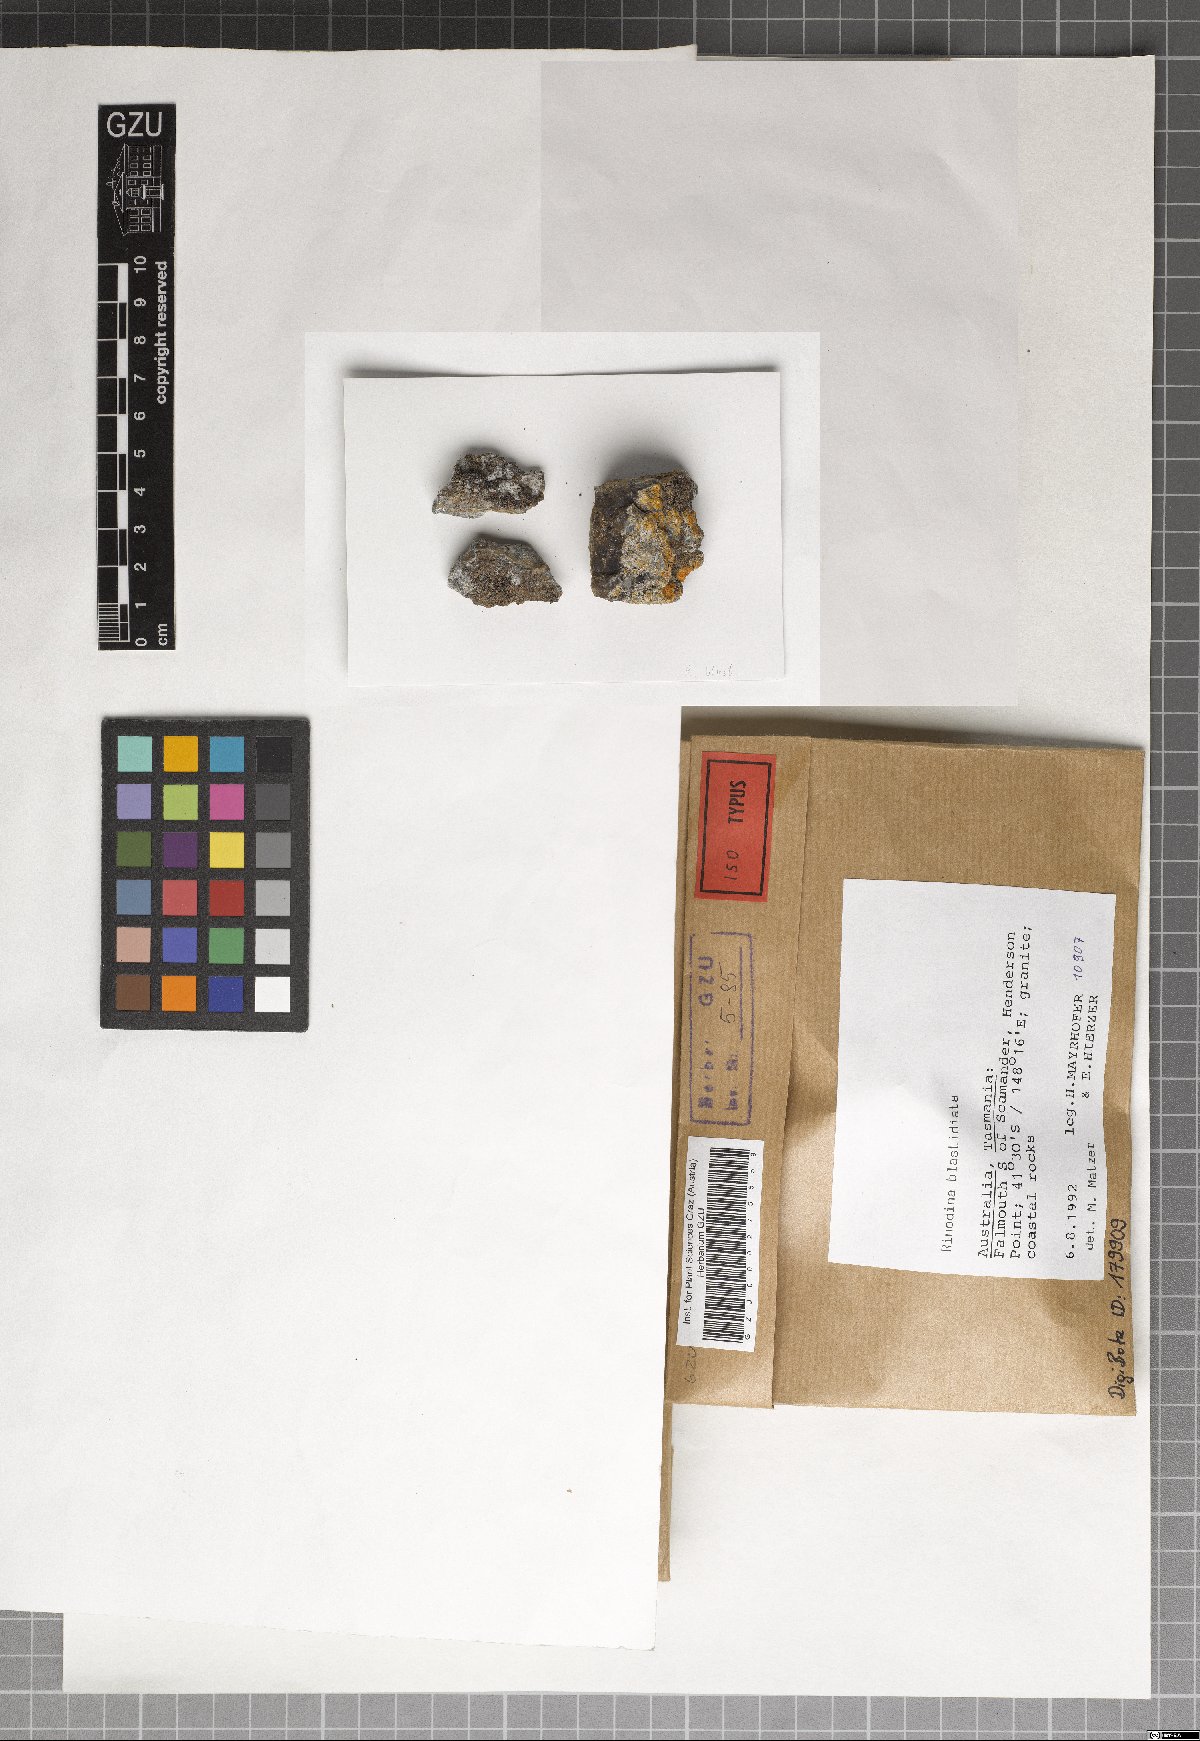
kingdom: Fungi
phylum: Ascomycota
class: Lecanoromycetes
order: Caliciales
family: Physciaceae
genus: Rinodina
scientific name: Rinodina blastidiata
